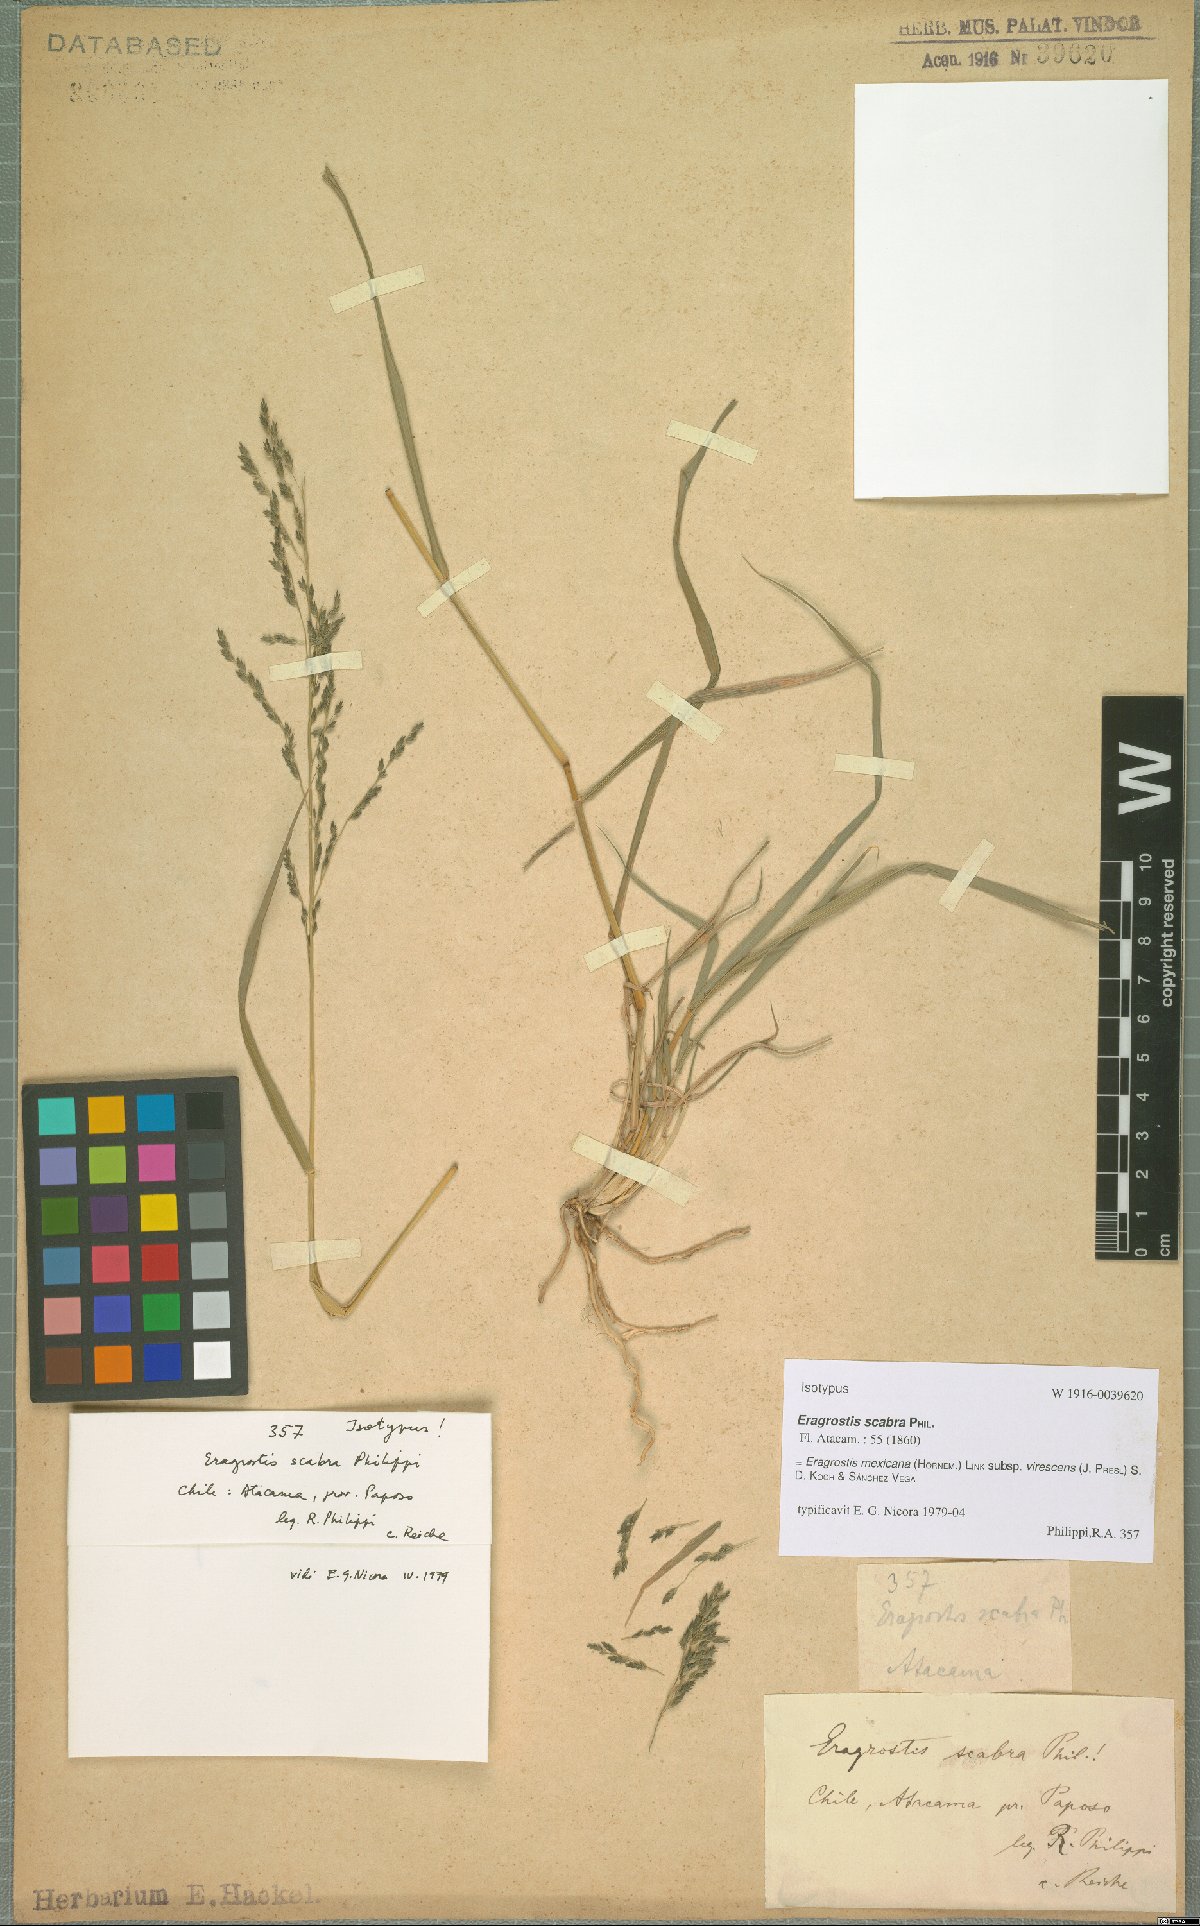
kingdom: Plantae
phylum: Tracheophyta
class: Liliopsida
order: Poales
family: Poaceae
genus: Eragrostis
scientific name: Eragrostis virescens
